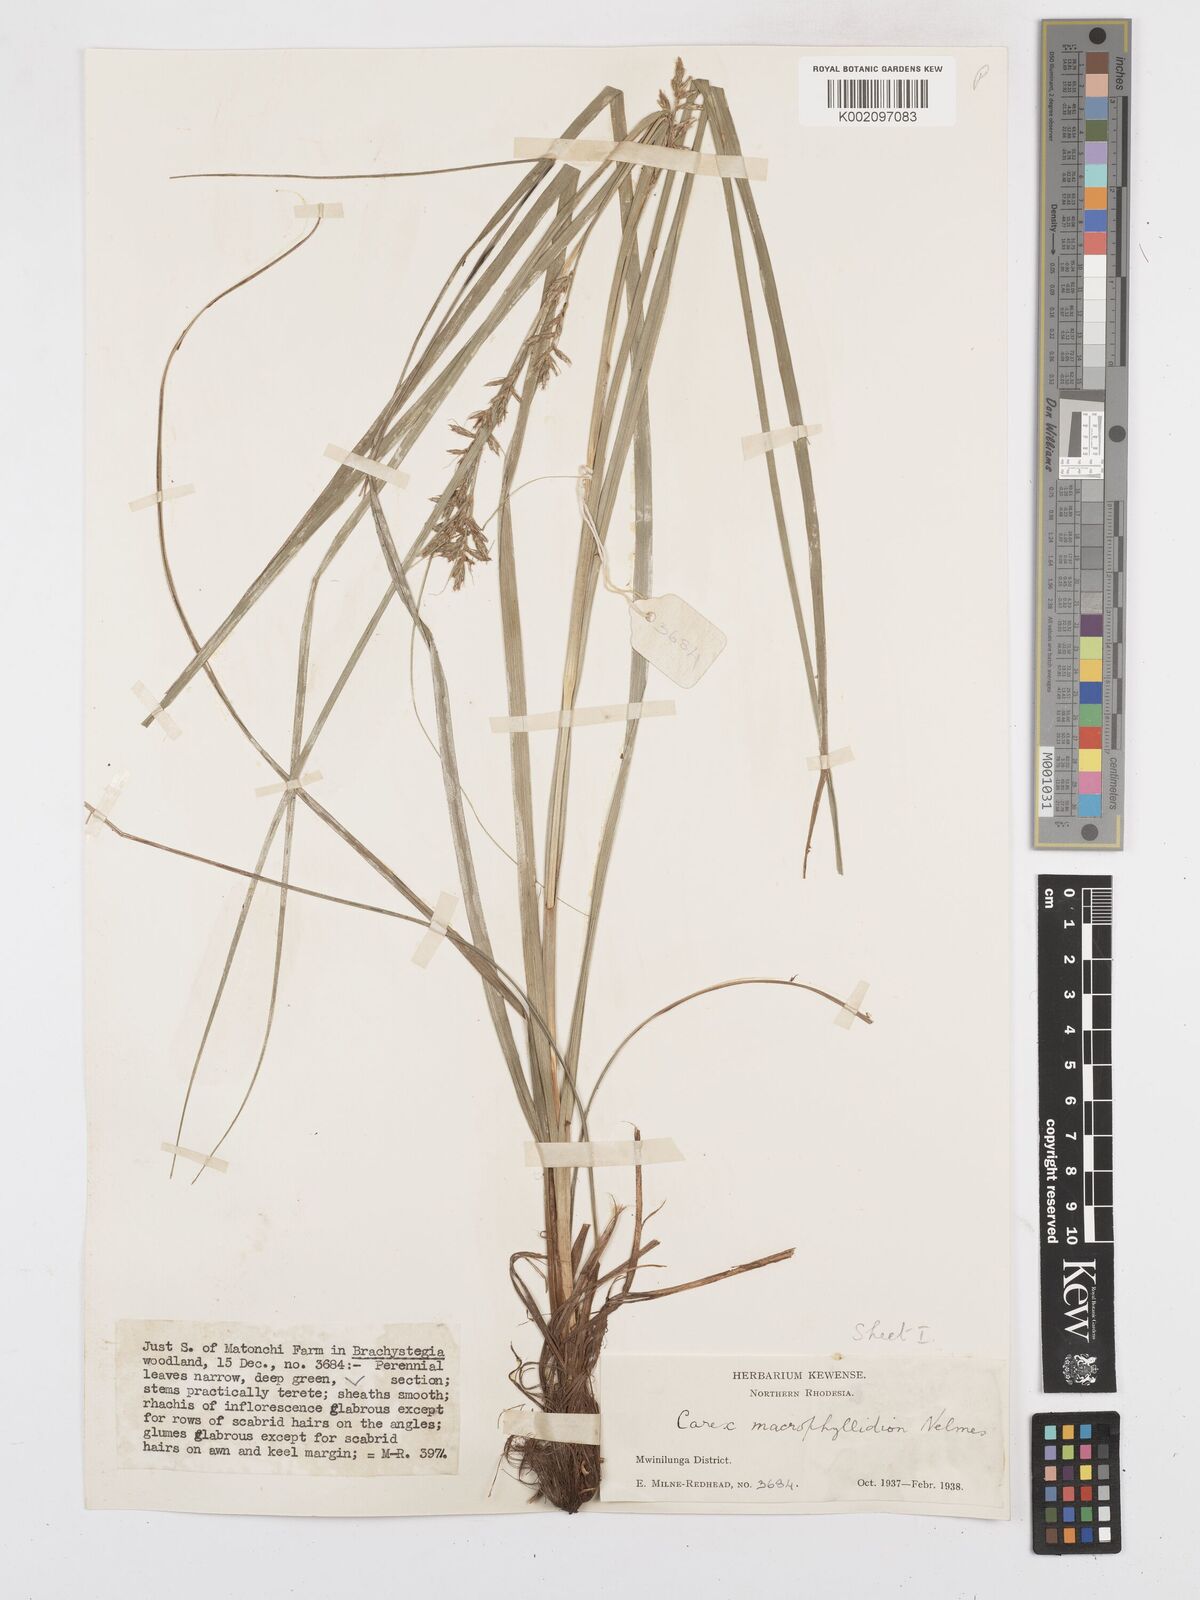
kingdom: Plantae
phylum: Tracheophyta
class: Liliopsida
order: Poales
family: Cyperaceae
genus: Carex
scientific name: Carex macrophyllidion
